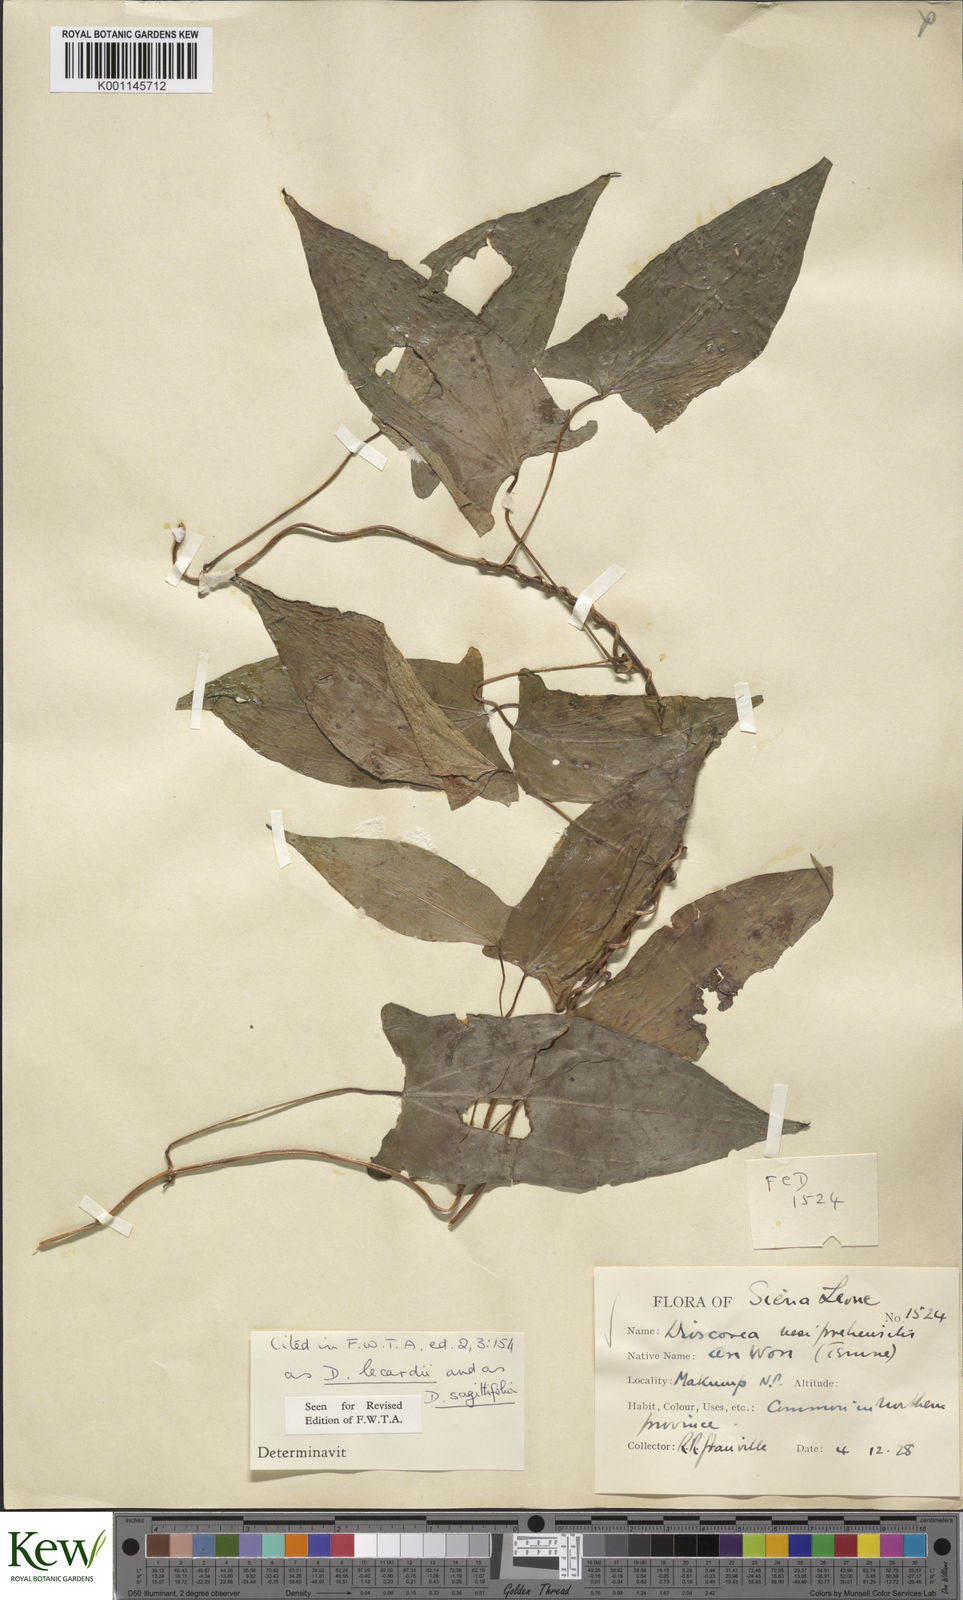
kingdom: Plantae
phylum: Tracheophyta
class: Liliopsida
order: Dioscoreales
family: Dioscoreaceae
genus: Dioscorea
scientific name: Dioscorea sagittifolia
